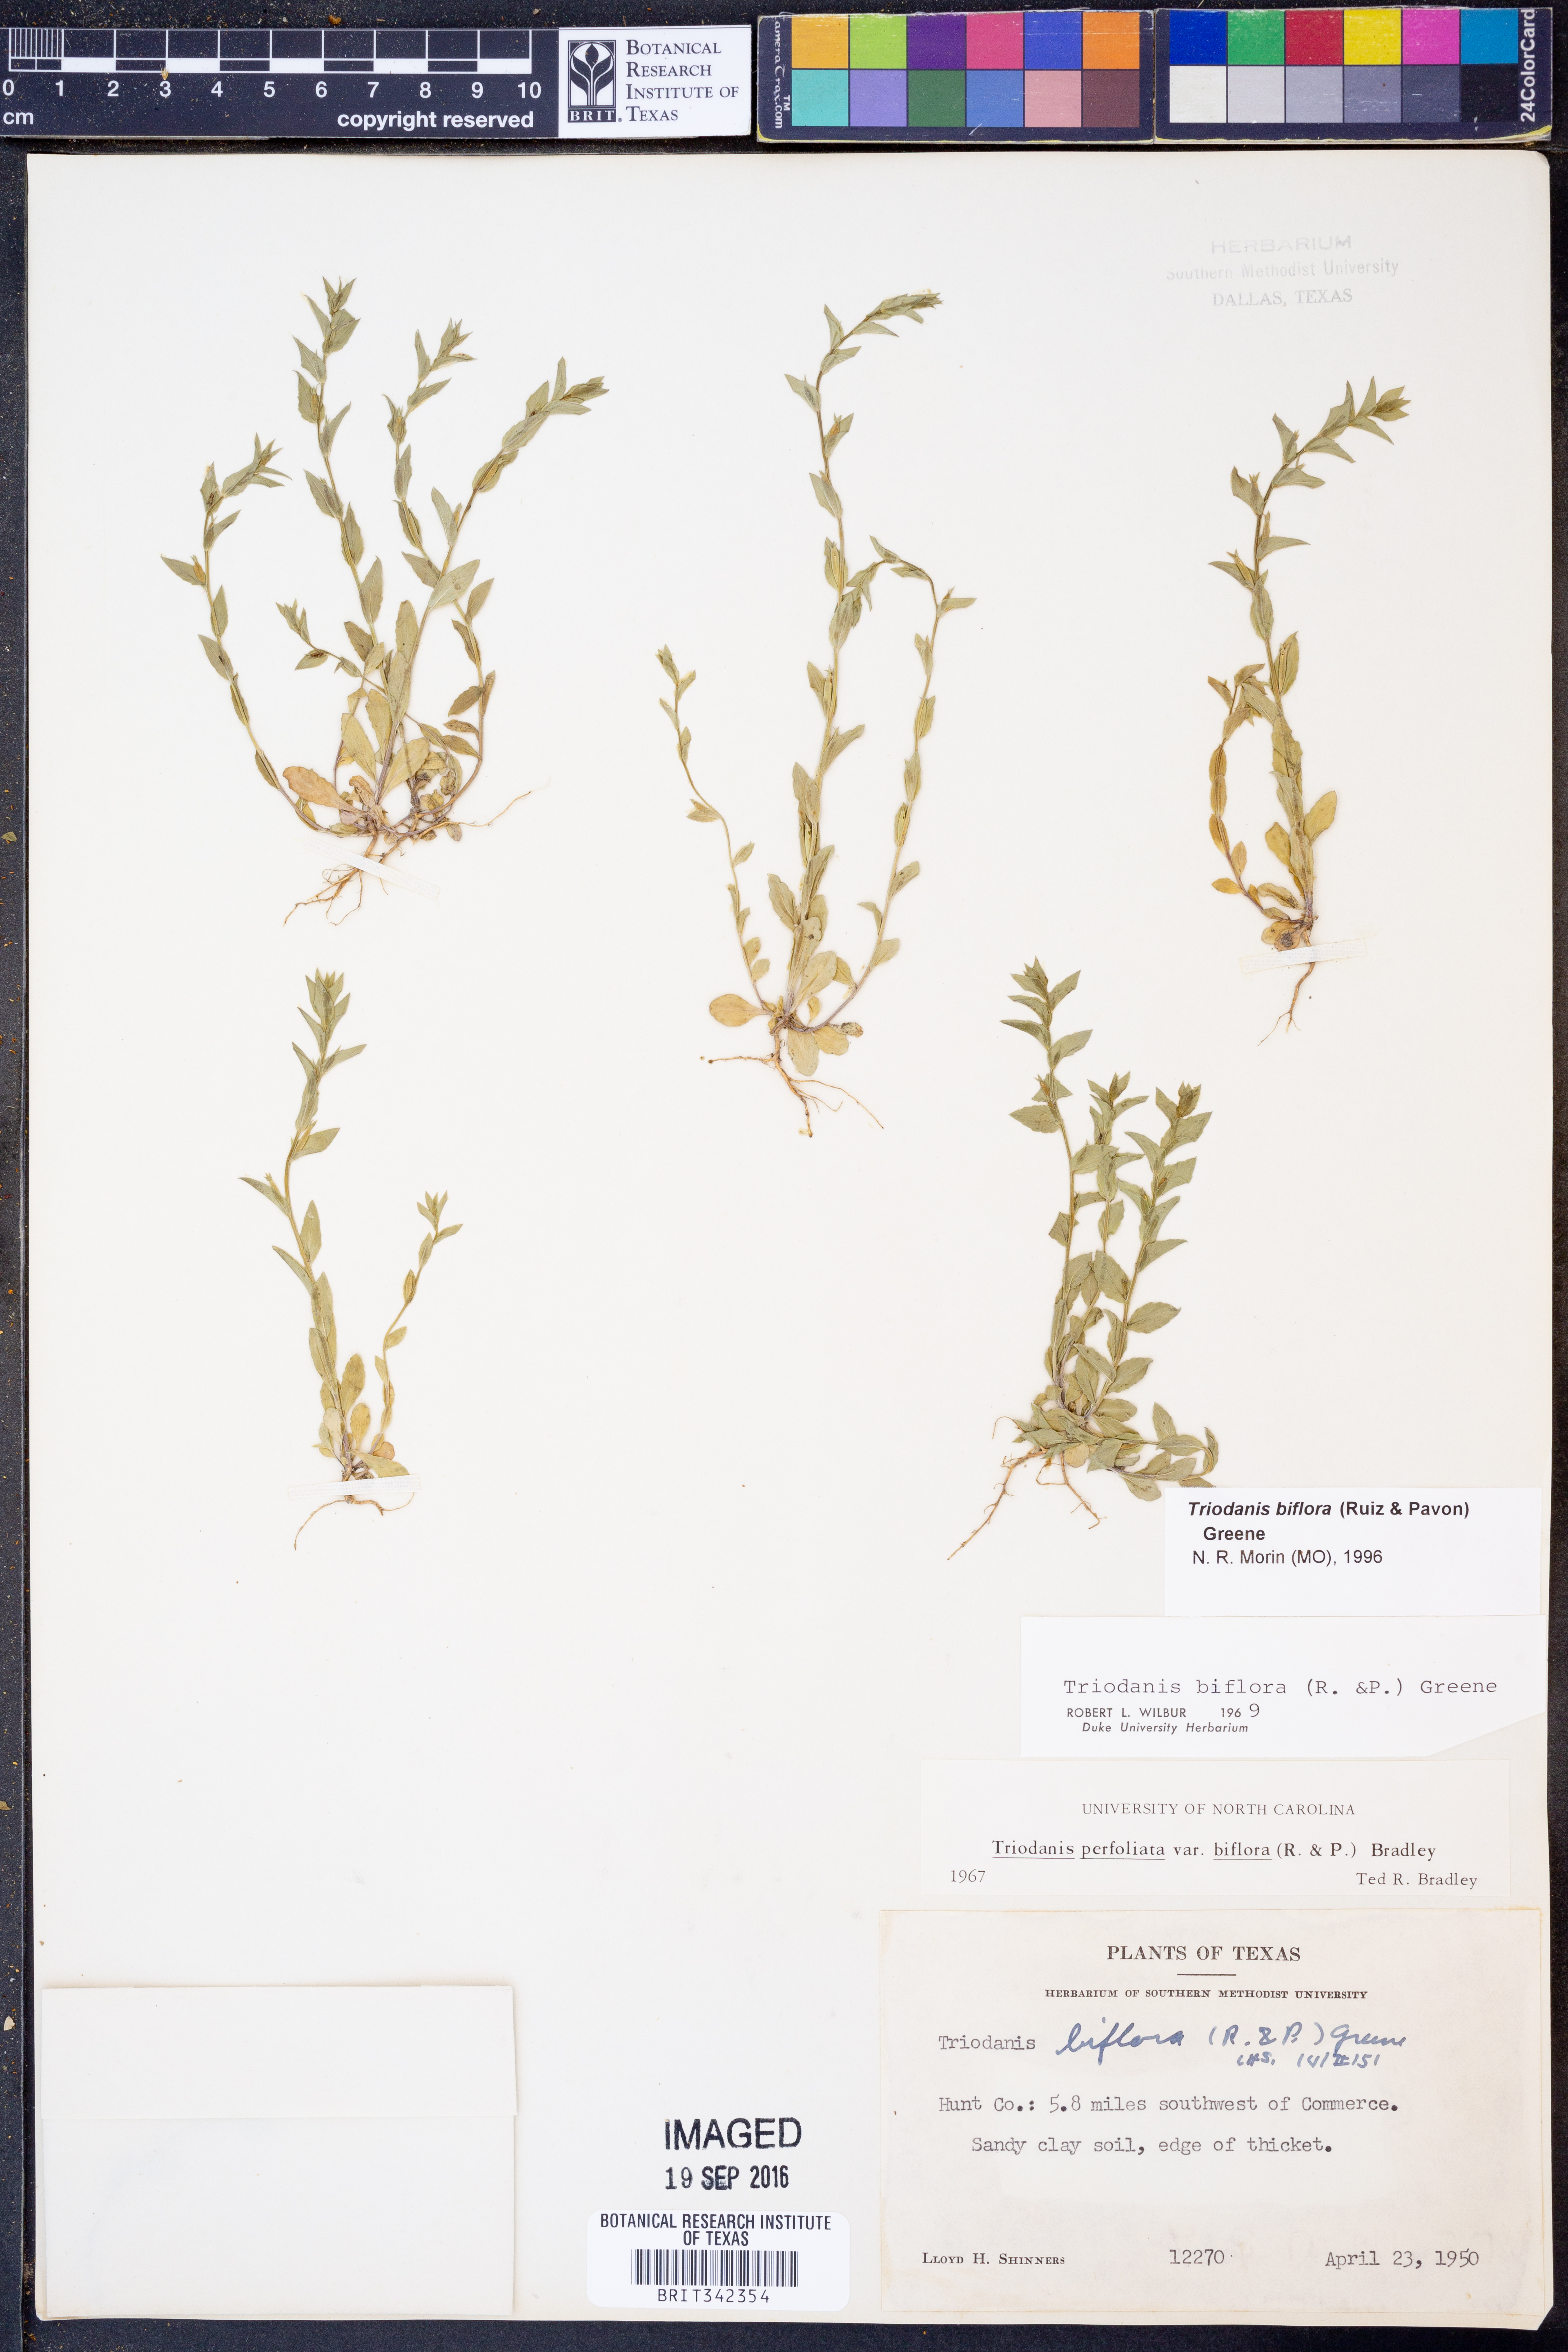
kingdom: Plantae
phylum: Tracheophyta
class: Magnoliopsida
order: Asterales
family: Campanulaceae
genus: Triodanis
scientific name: Triodanis perfoliata
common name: Clasping venus' looking-glass
